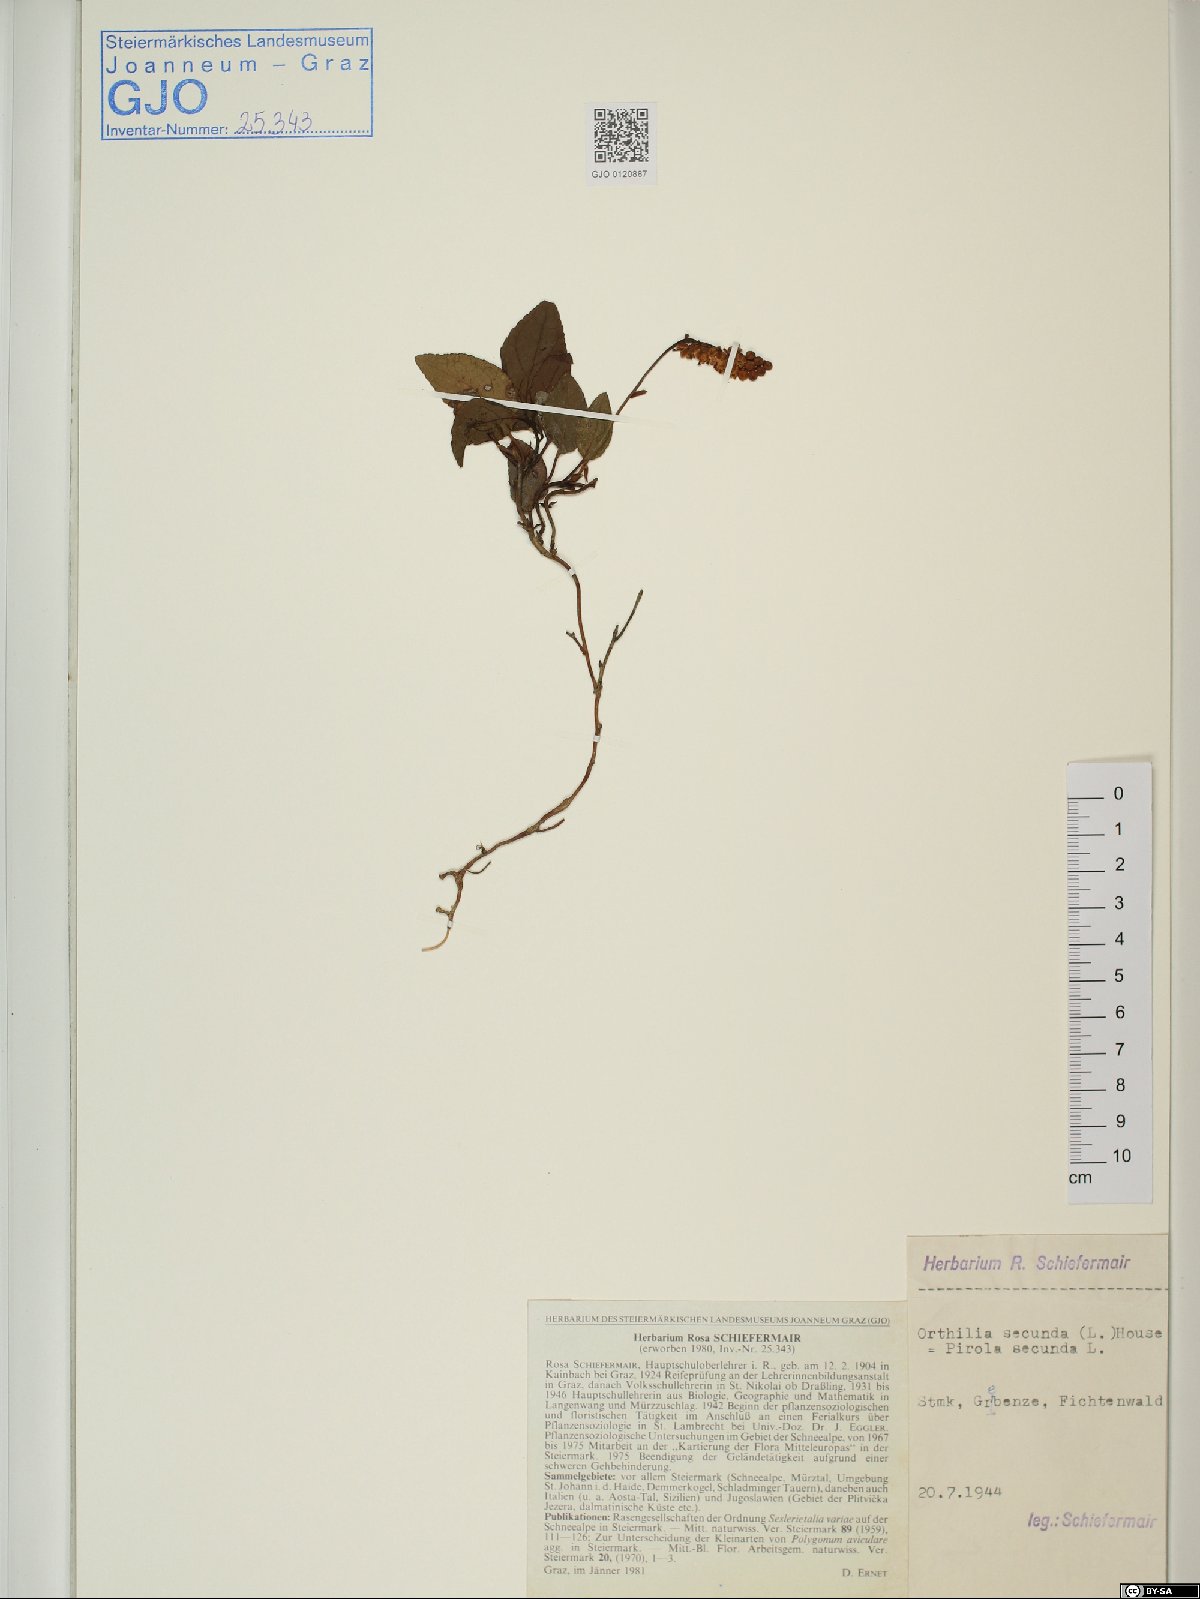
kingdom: Plantae
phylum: Tracheophyta
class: Magnoliopsida
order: Ericales
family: Ericaceae
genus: Orthilia
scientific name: Orthilia secunda
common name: One-sided orthilia
